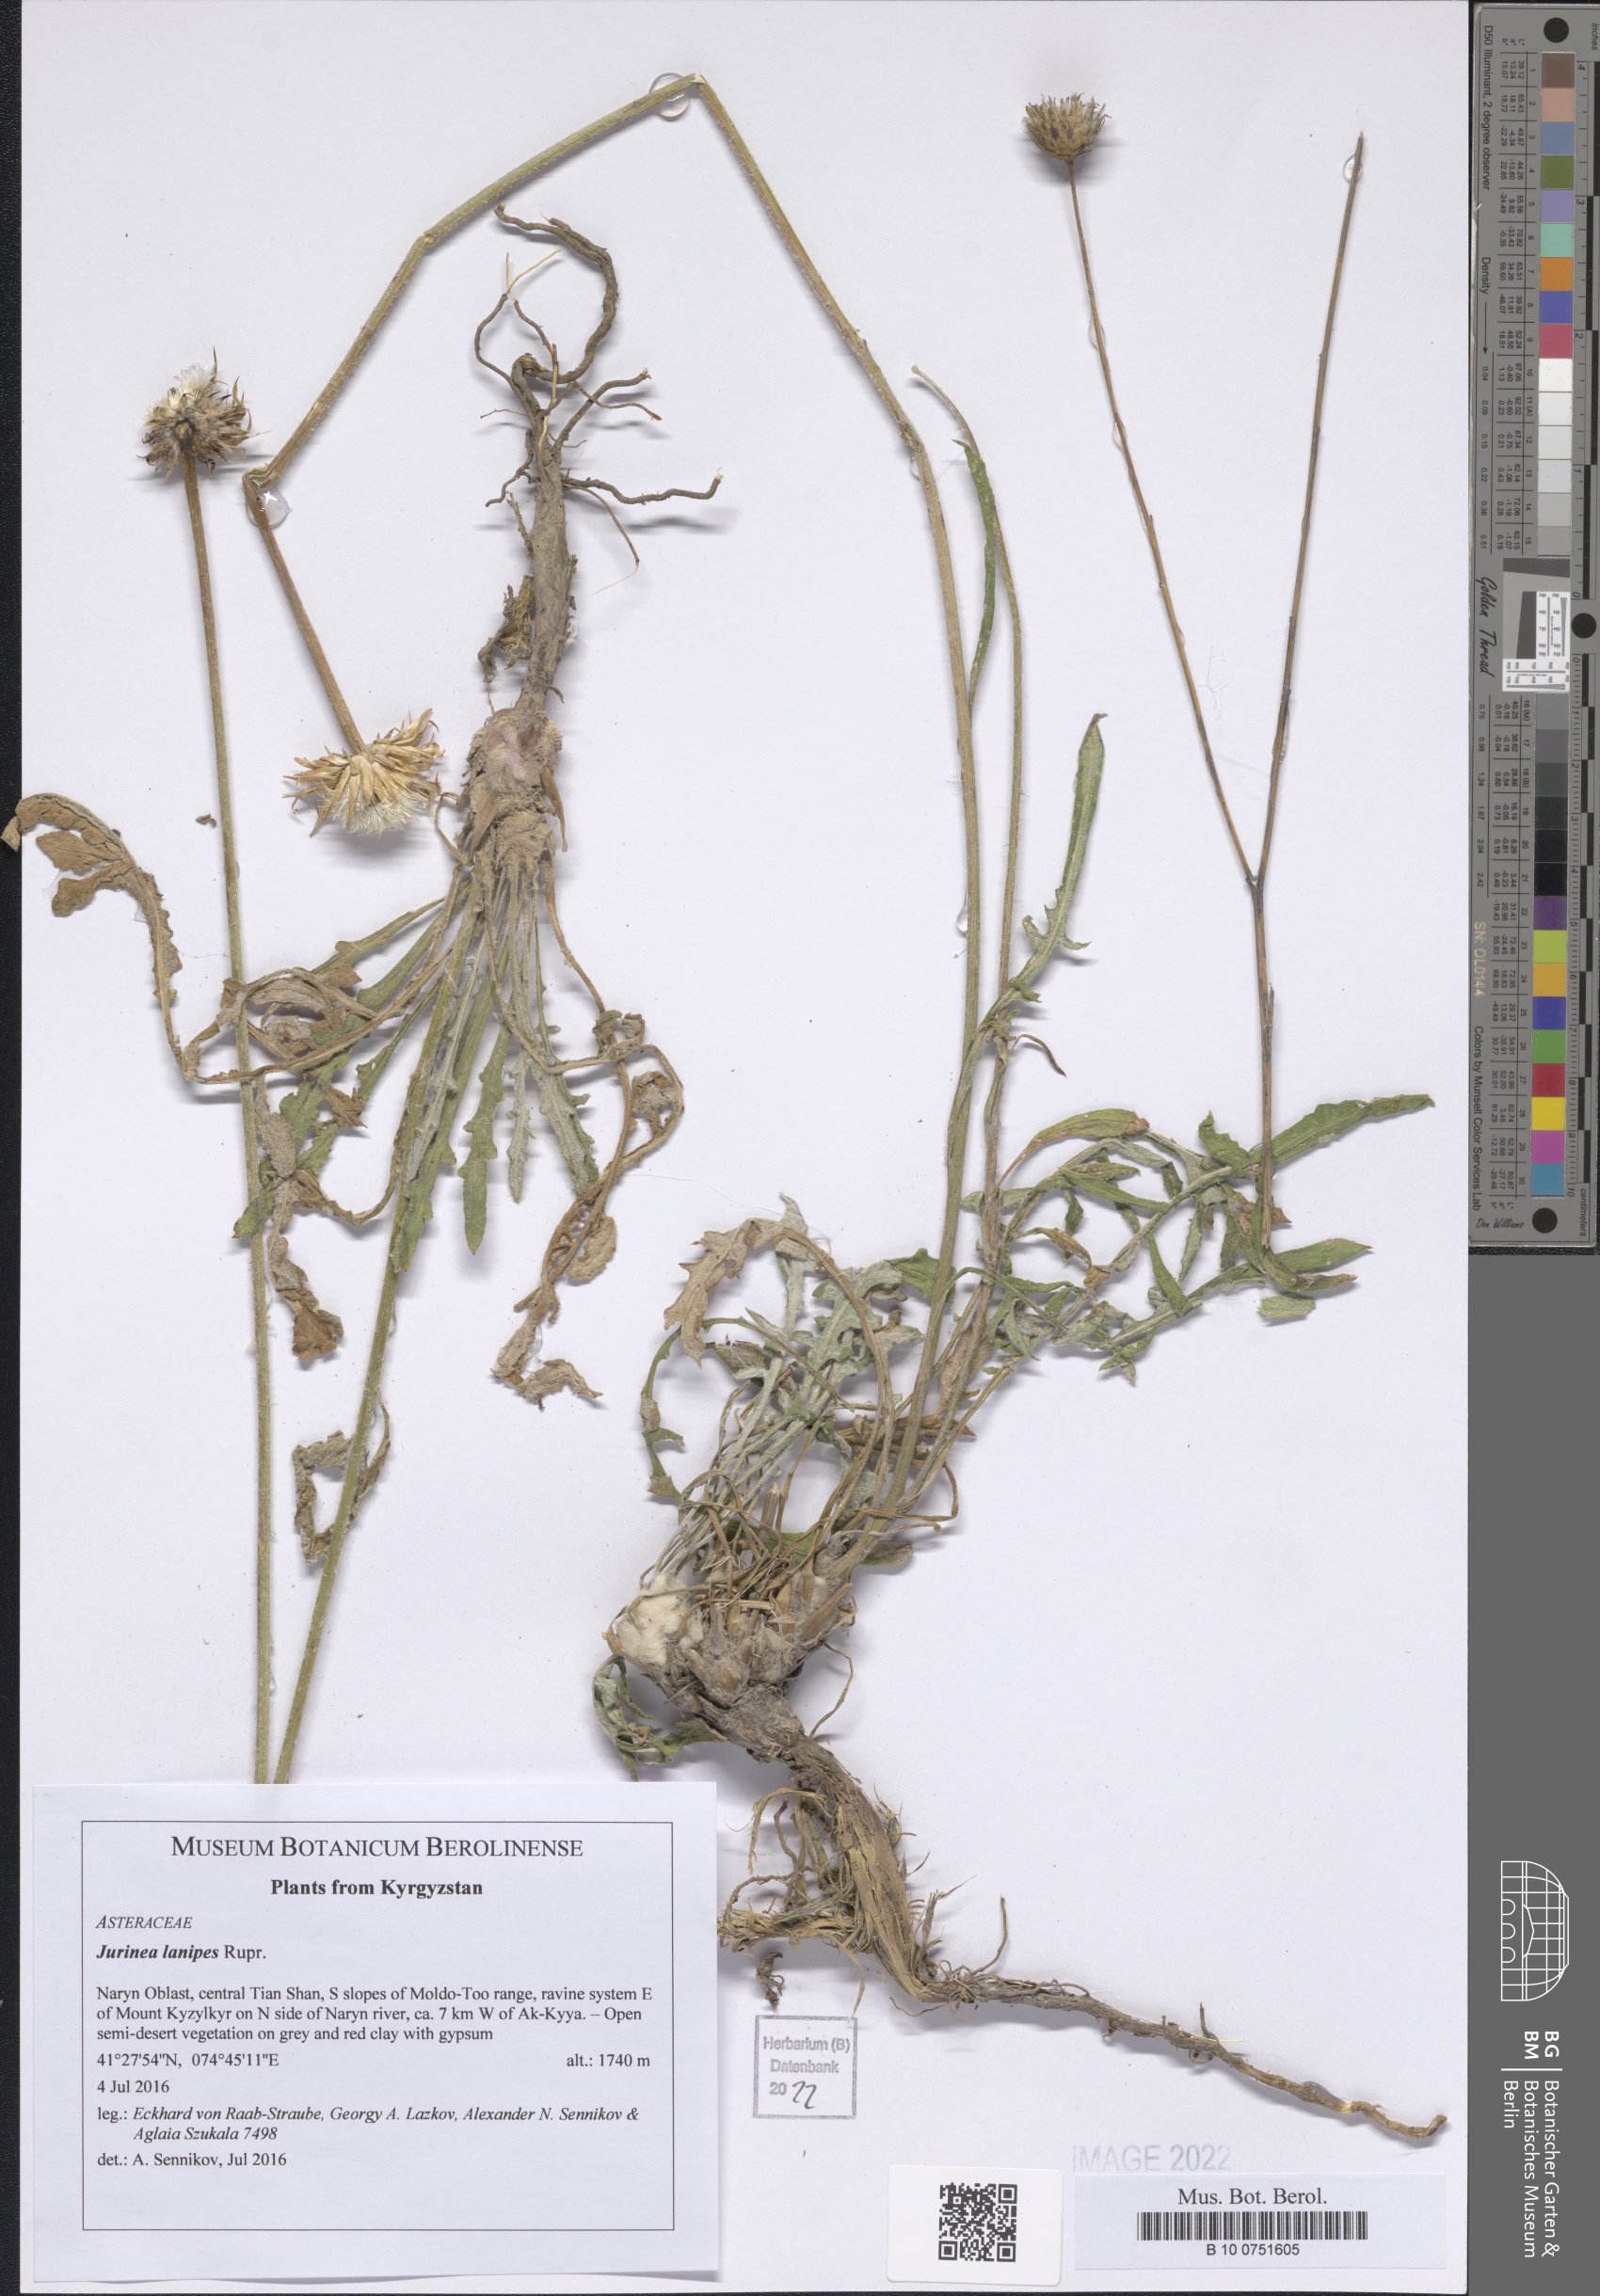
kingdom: Plantae
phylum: Tracheophyta
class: Magnoliopsida
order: Asterales
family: Asteraceae
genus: Jurinea
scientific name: Jurinea lanipes
